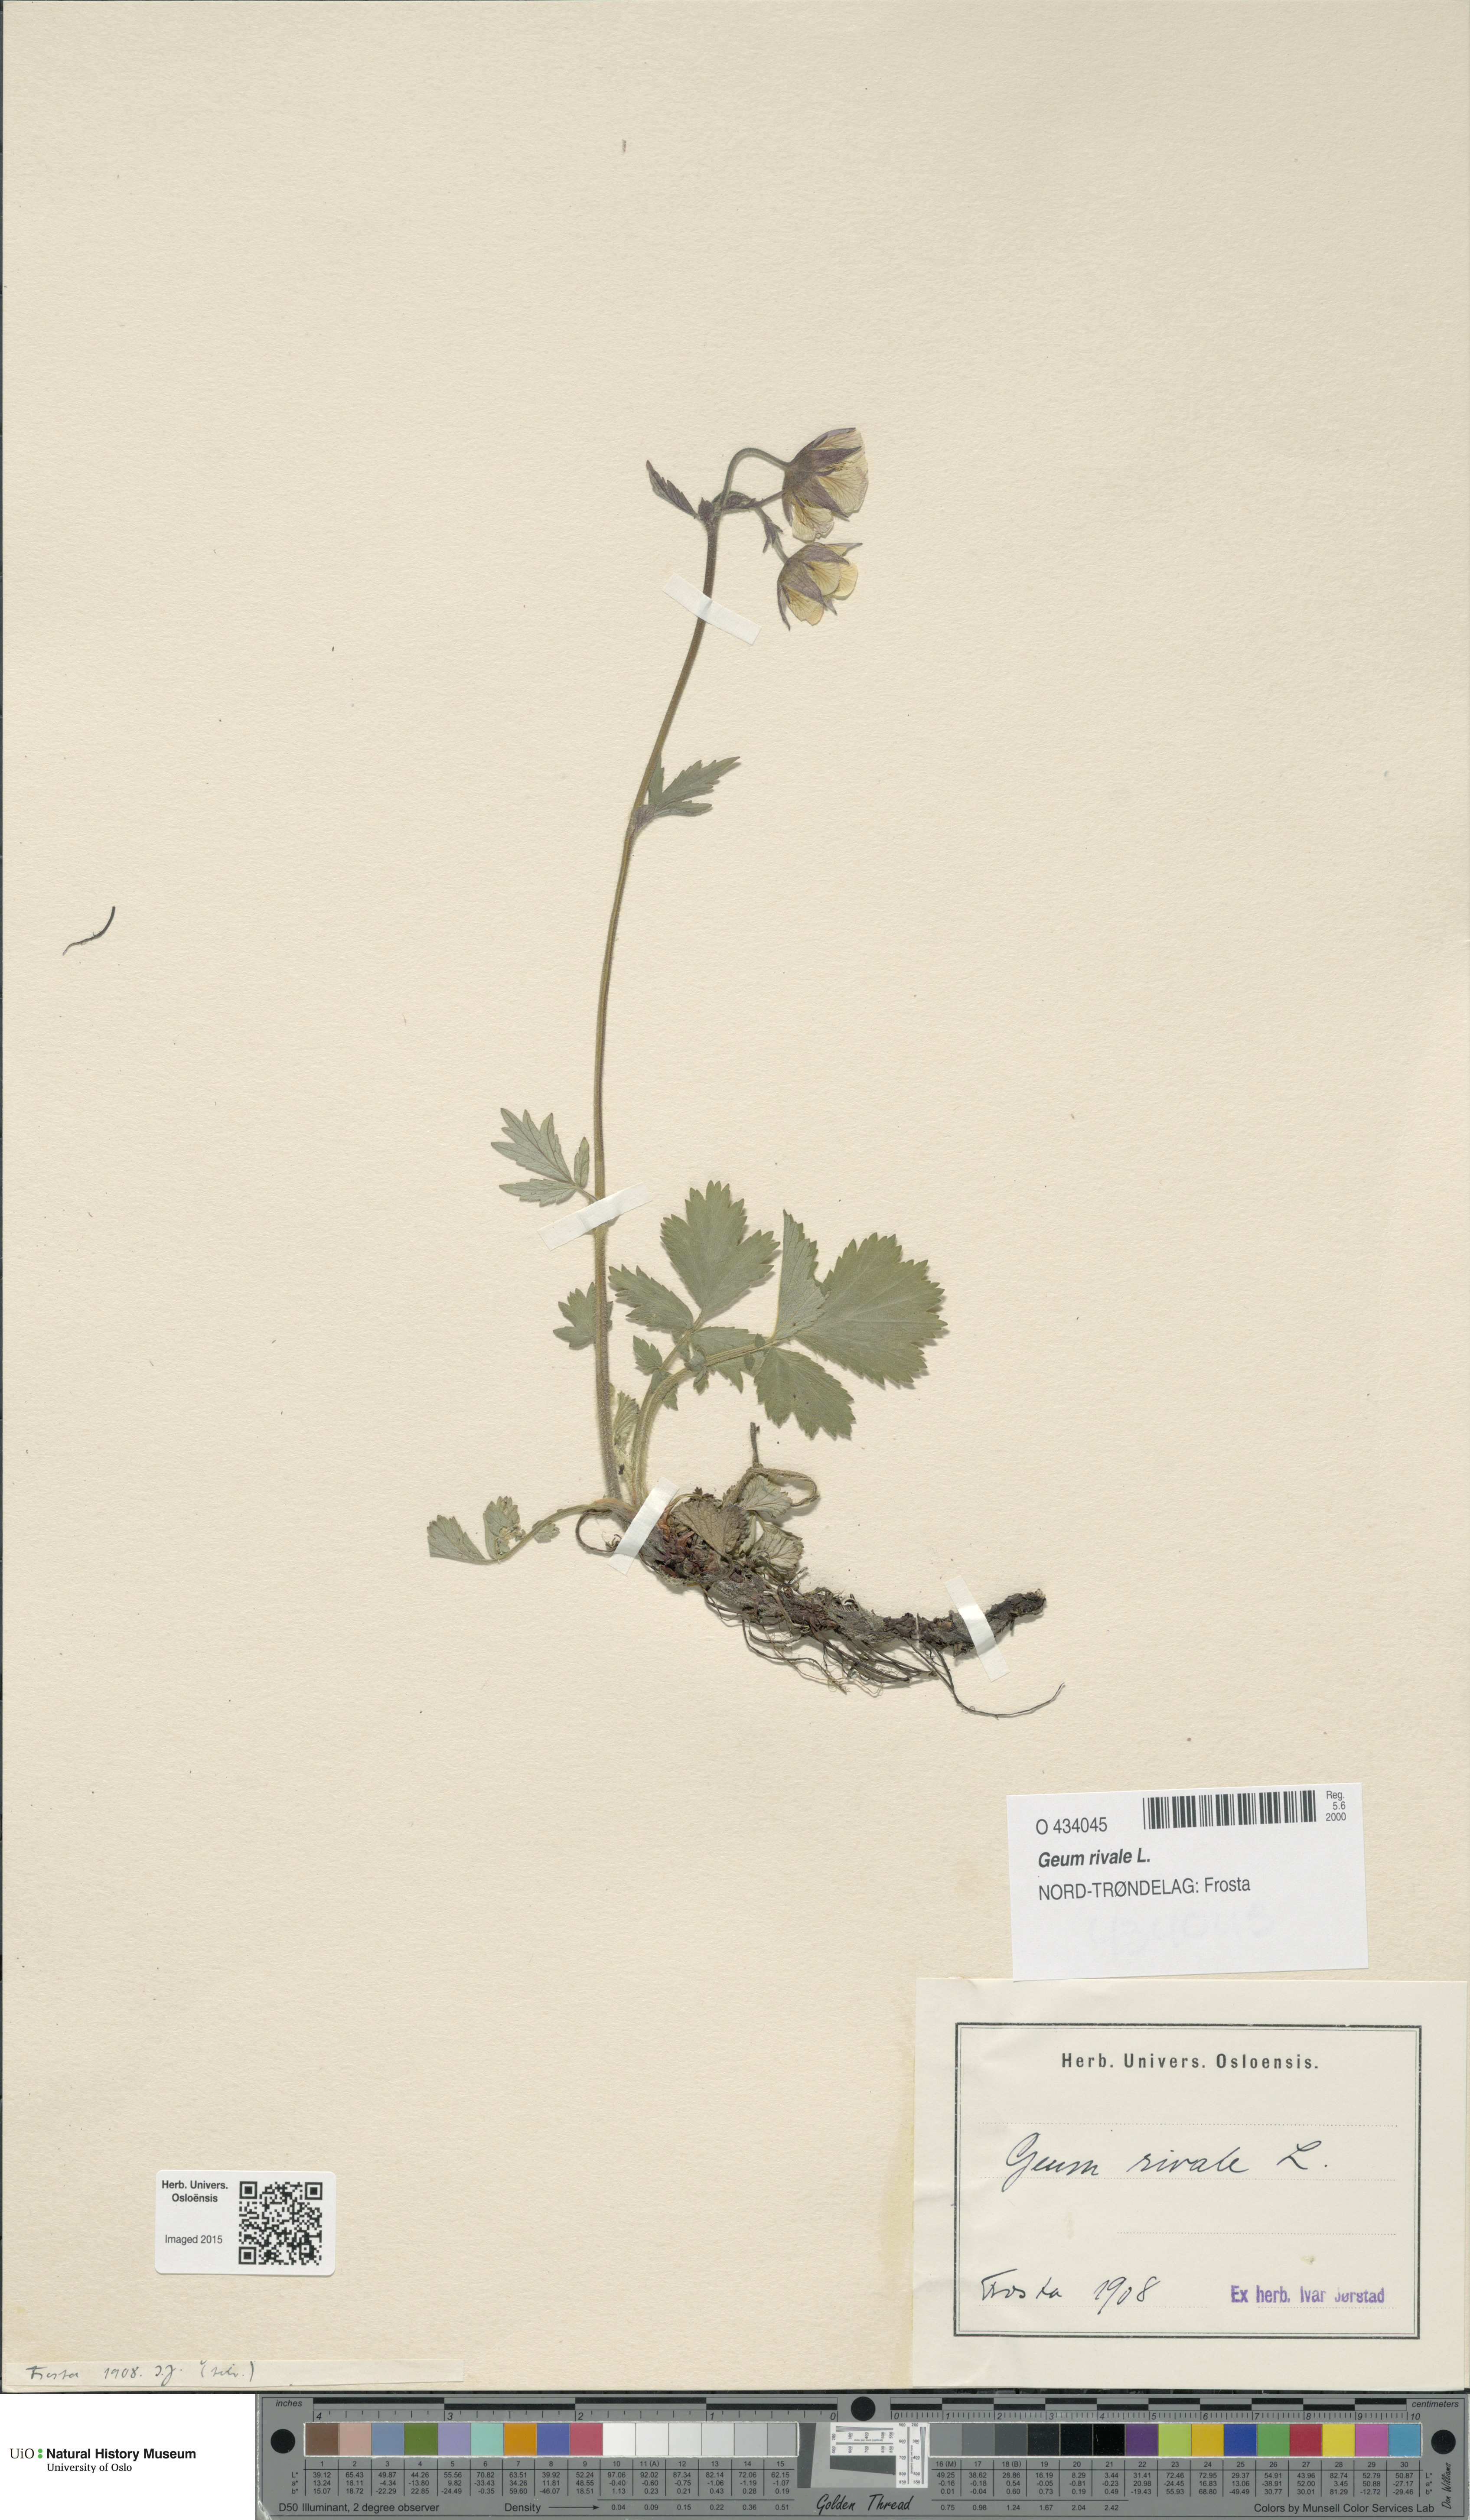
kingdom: Plantae
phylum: Tracheophyta
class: Magnoliopsida
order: Rosales
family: Rosaceae
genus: Geum
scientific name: Geum rivale
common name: Water avens
